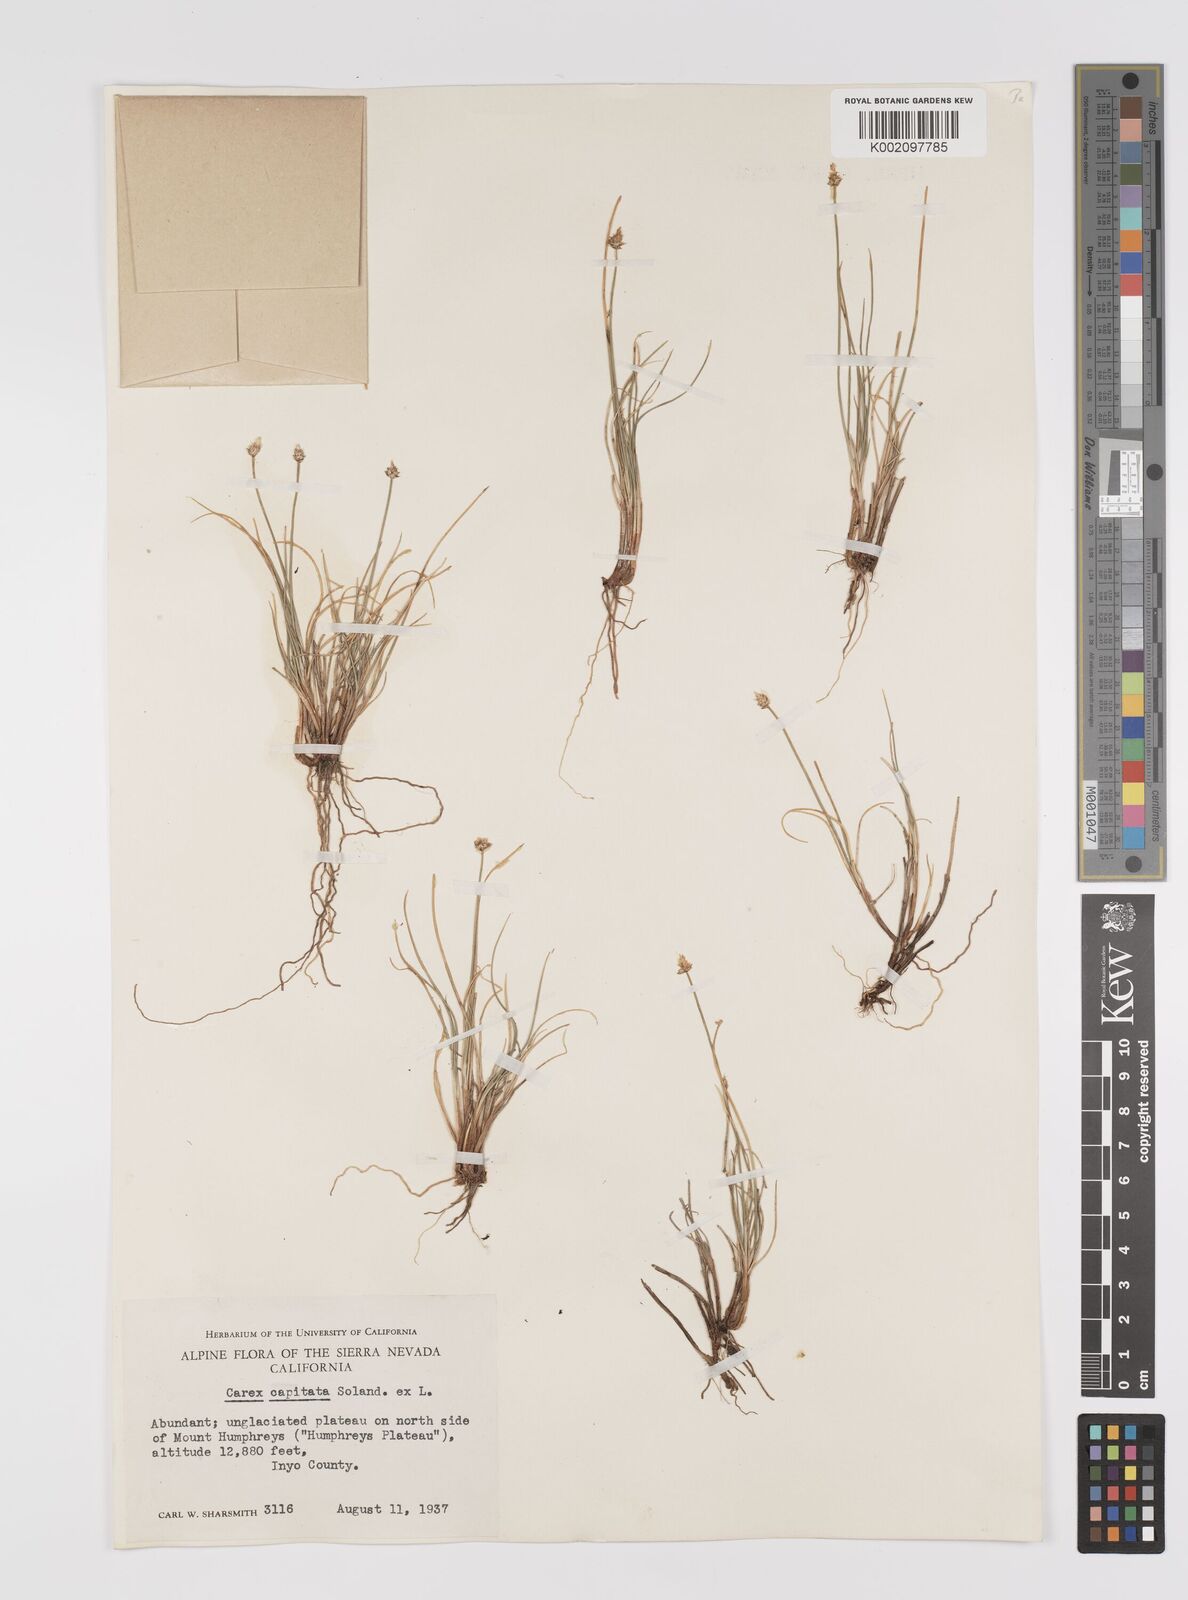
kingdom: Plantae
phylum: Tracheophyta
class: Liliopsida
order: Poales
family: Cyperaceae
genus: Carex
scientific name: Carex capitata
